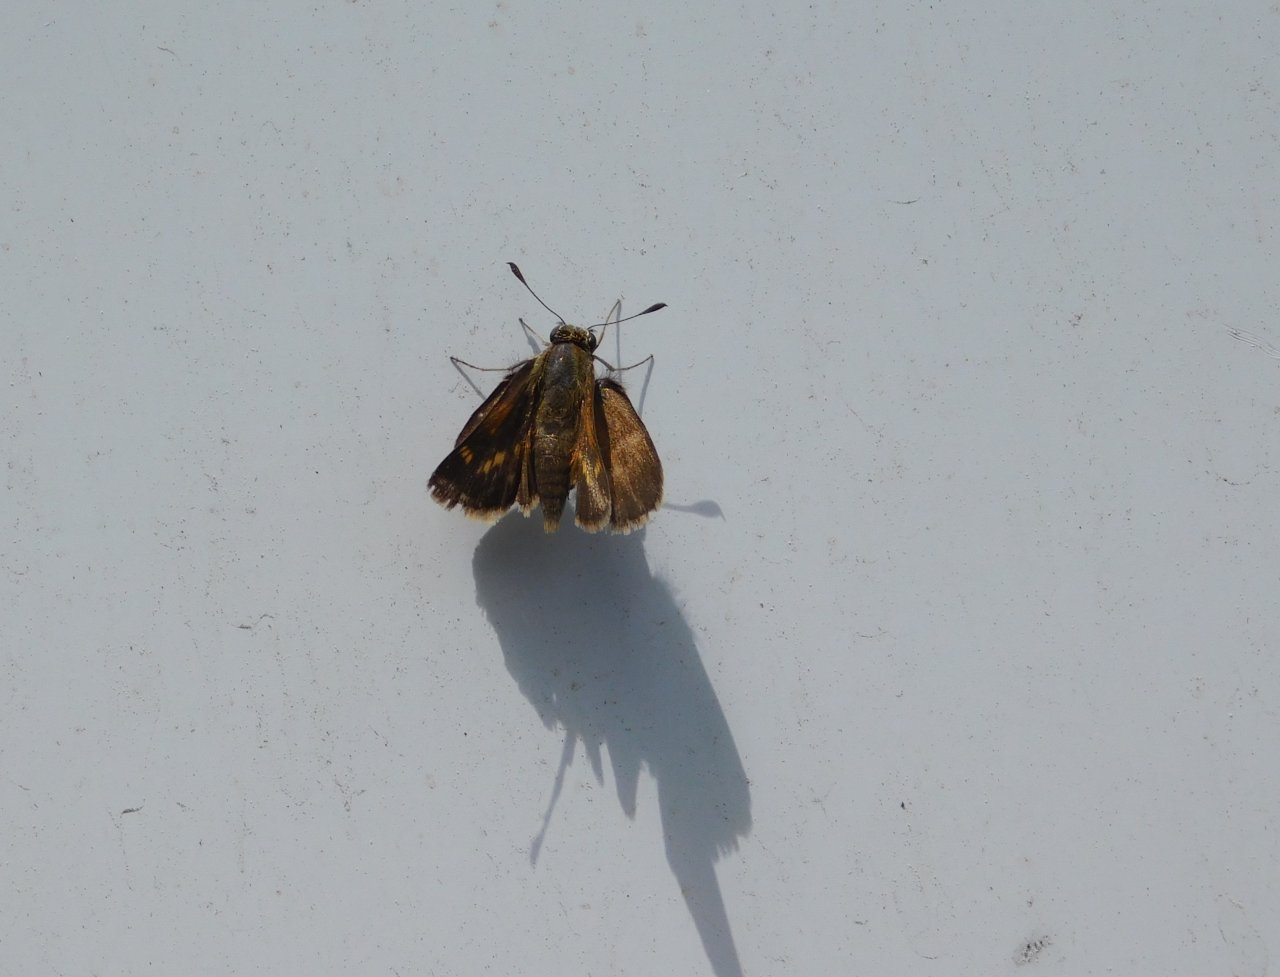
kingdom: Animalia
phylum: Arthropoda
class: Insecta
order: Lepidoptera
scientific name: Lepidoptera
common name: Butterflies
